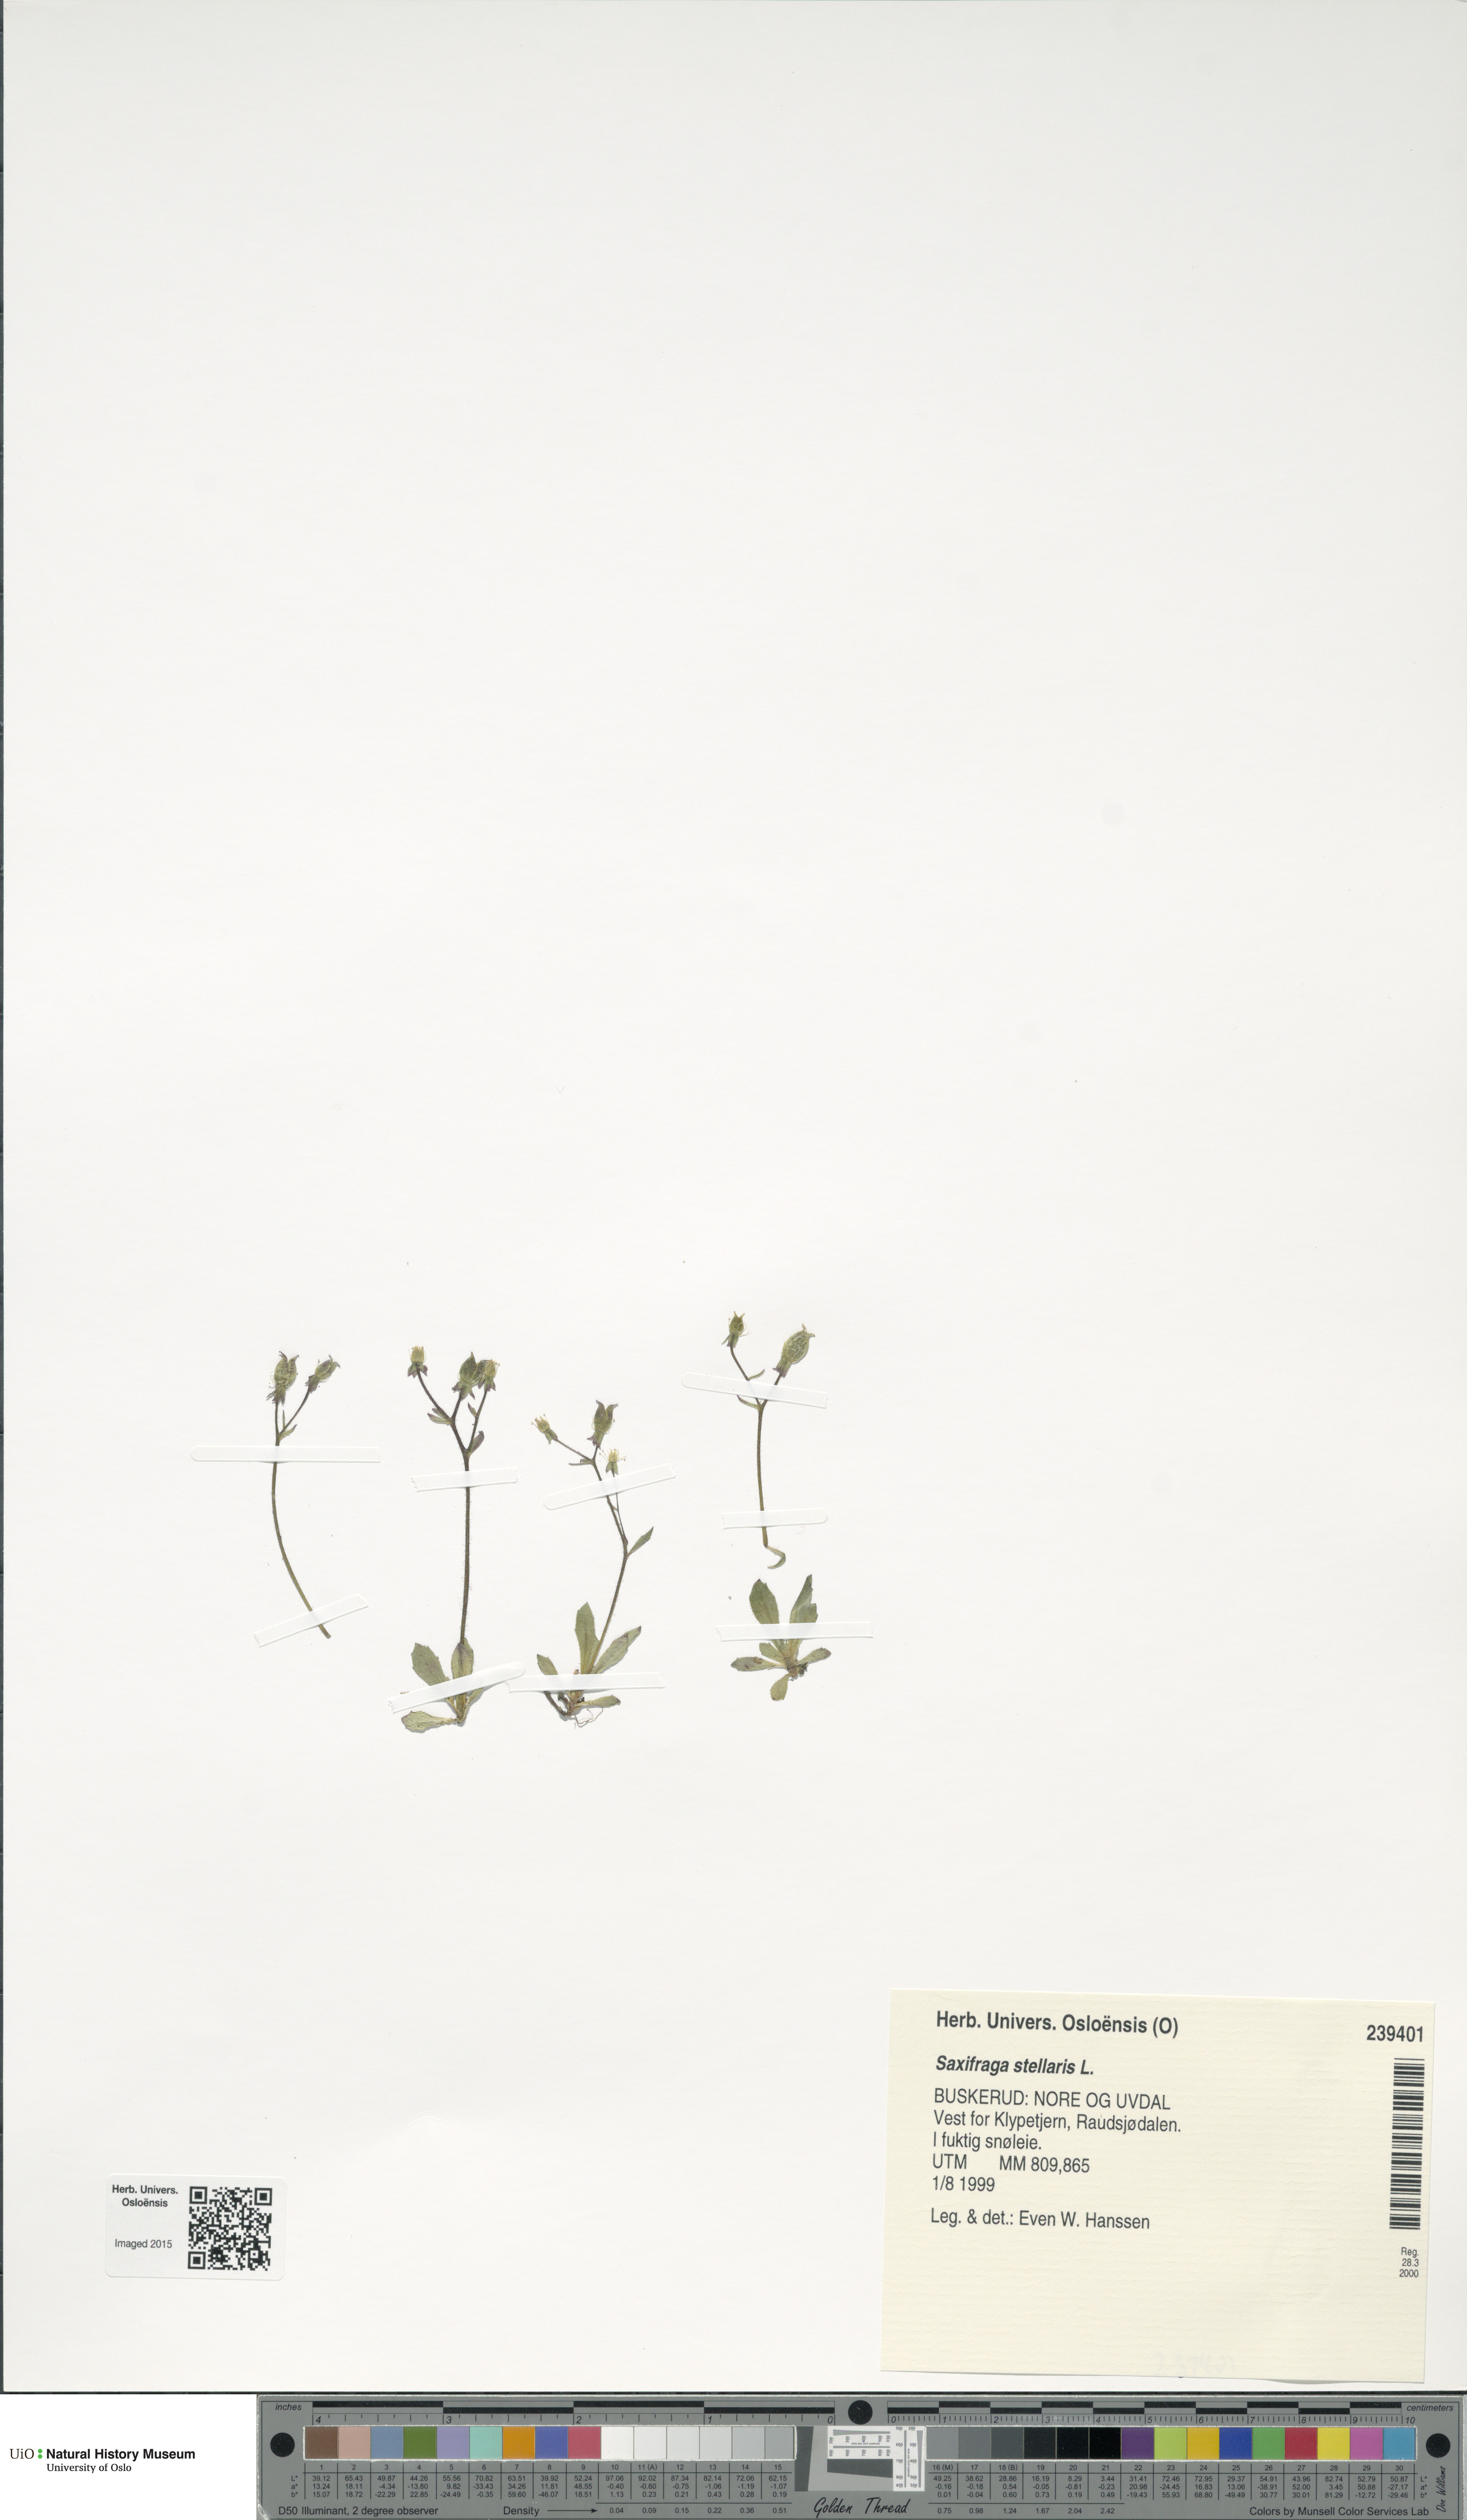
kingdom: Plantae
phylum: Tracheophyta
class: Magnoliopsida
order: Saxifragales
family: Saxifragaceae
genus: Micranthes
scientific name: Micranthes stellaris
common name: Starry saxifrage
